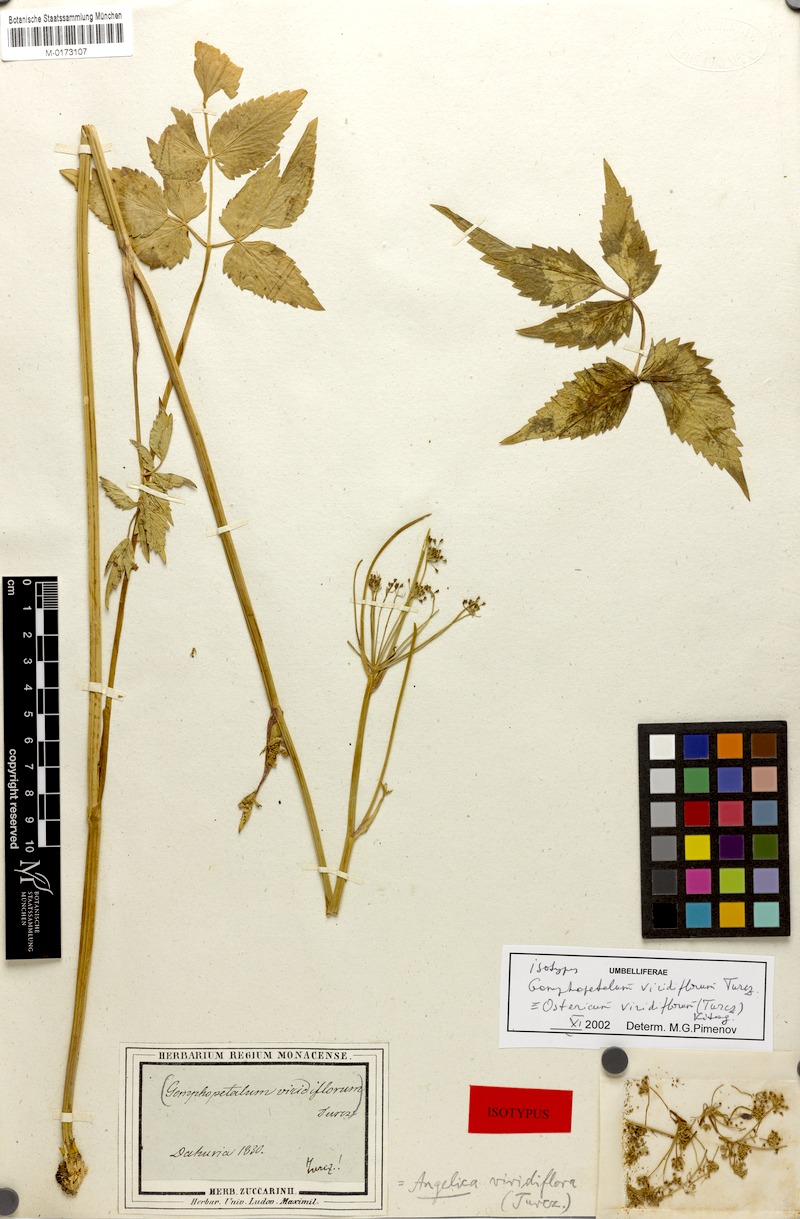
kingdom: Plantae
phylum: Tracheophyta
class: Magnoliopsida
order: Apiales
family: Apiaceae
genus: Ostericum
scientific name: Ostericum viridiflorum
